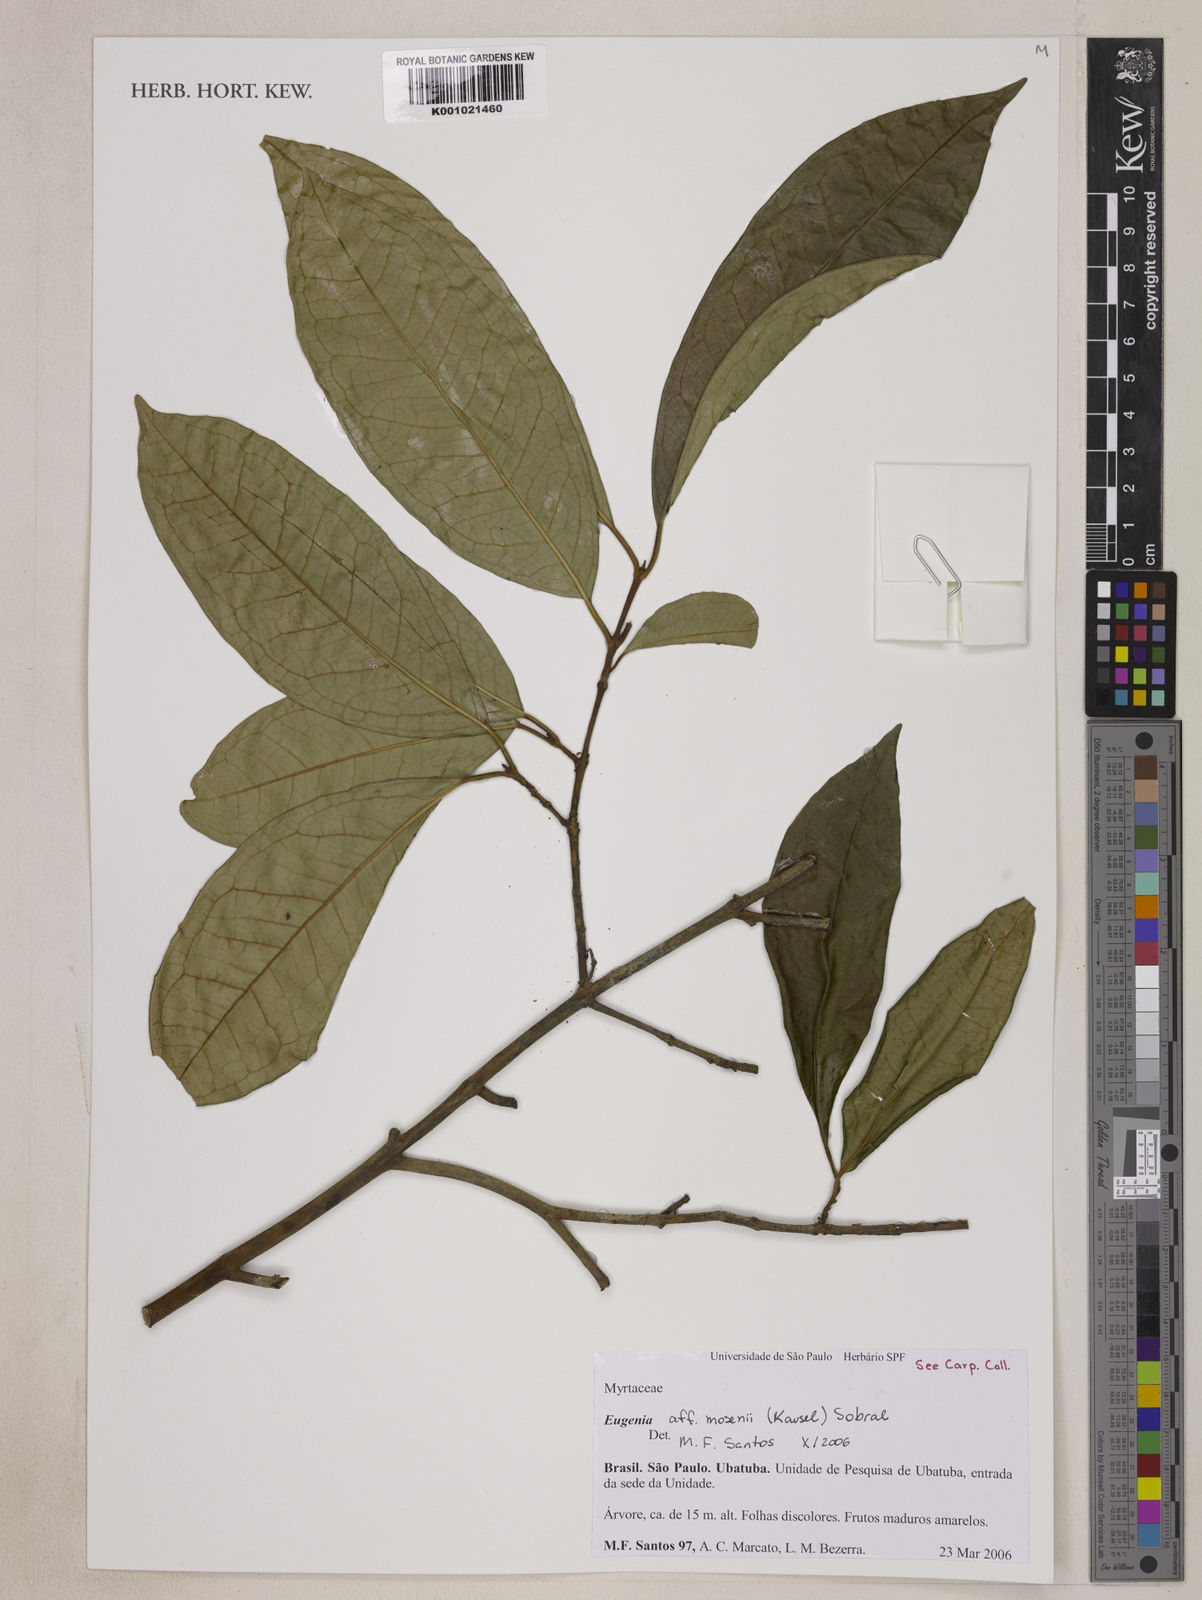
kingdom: Plantae
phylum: Tracheophyta
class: Magnoliopsida
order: Myrtales
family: Myrtaceae
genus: Eugenia
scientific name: Eugenia mosenii
